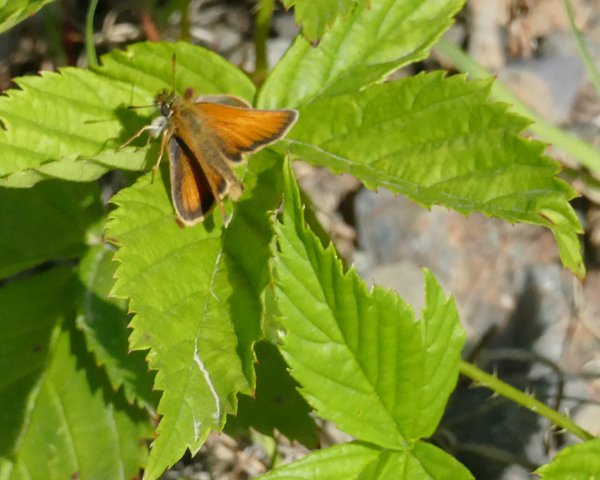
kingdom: Animalia
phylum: Arthropoda
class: Insecta
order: Lepidoptera
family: Hesperiidae
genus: Thymelicus
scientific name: Thymelicus lineola
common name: European Skipper
